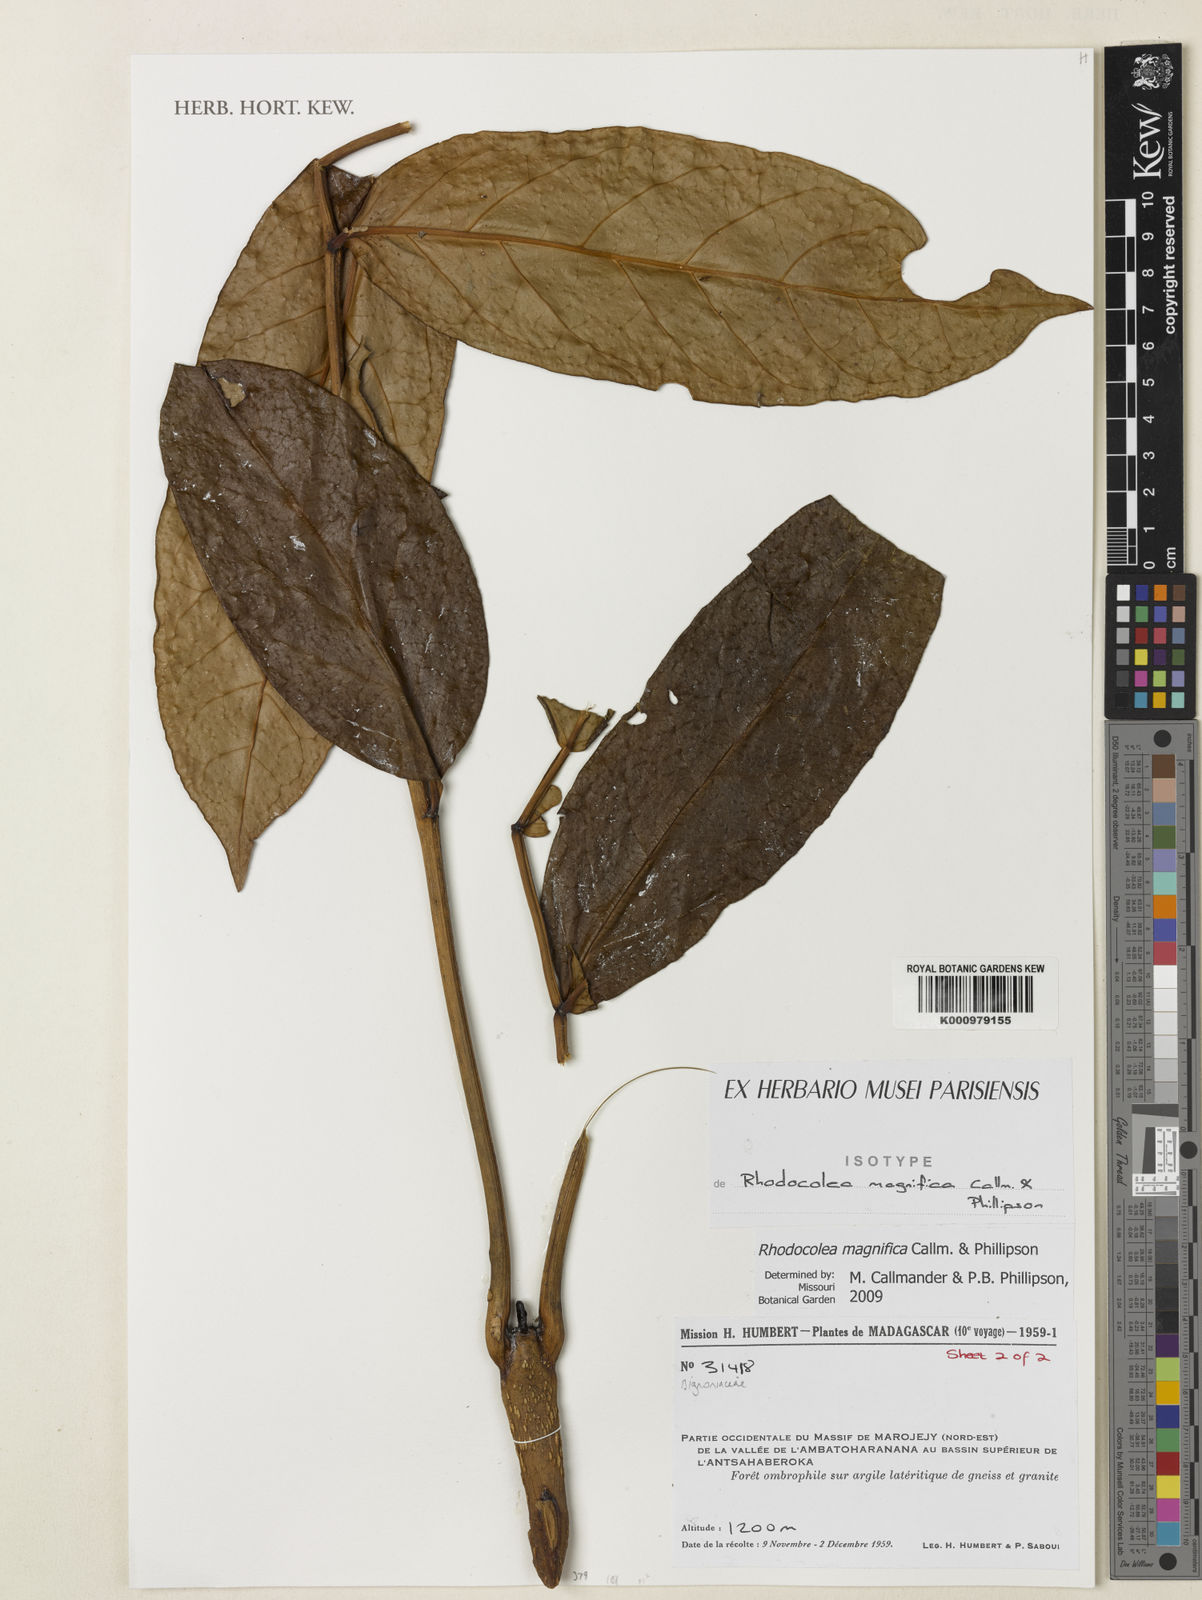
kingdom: Plantae
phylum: Tracheophyta
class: Magnoliopsida
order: Lamiales
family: Bignoniaceae
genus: Rhodocolea
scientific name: Rhodocolea magnifica
